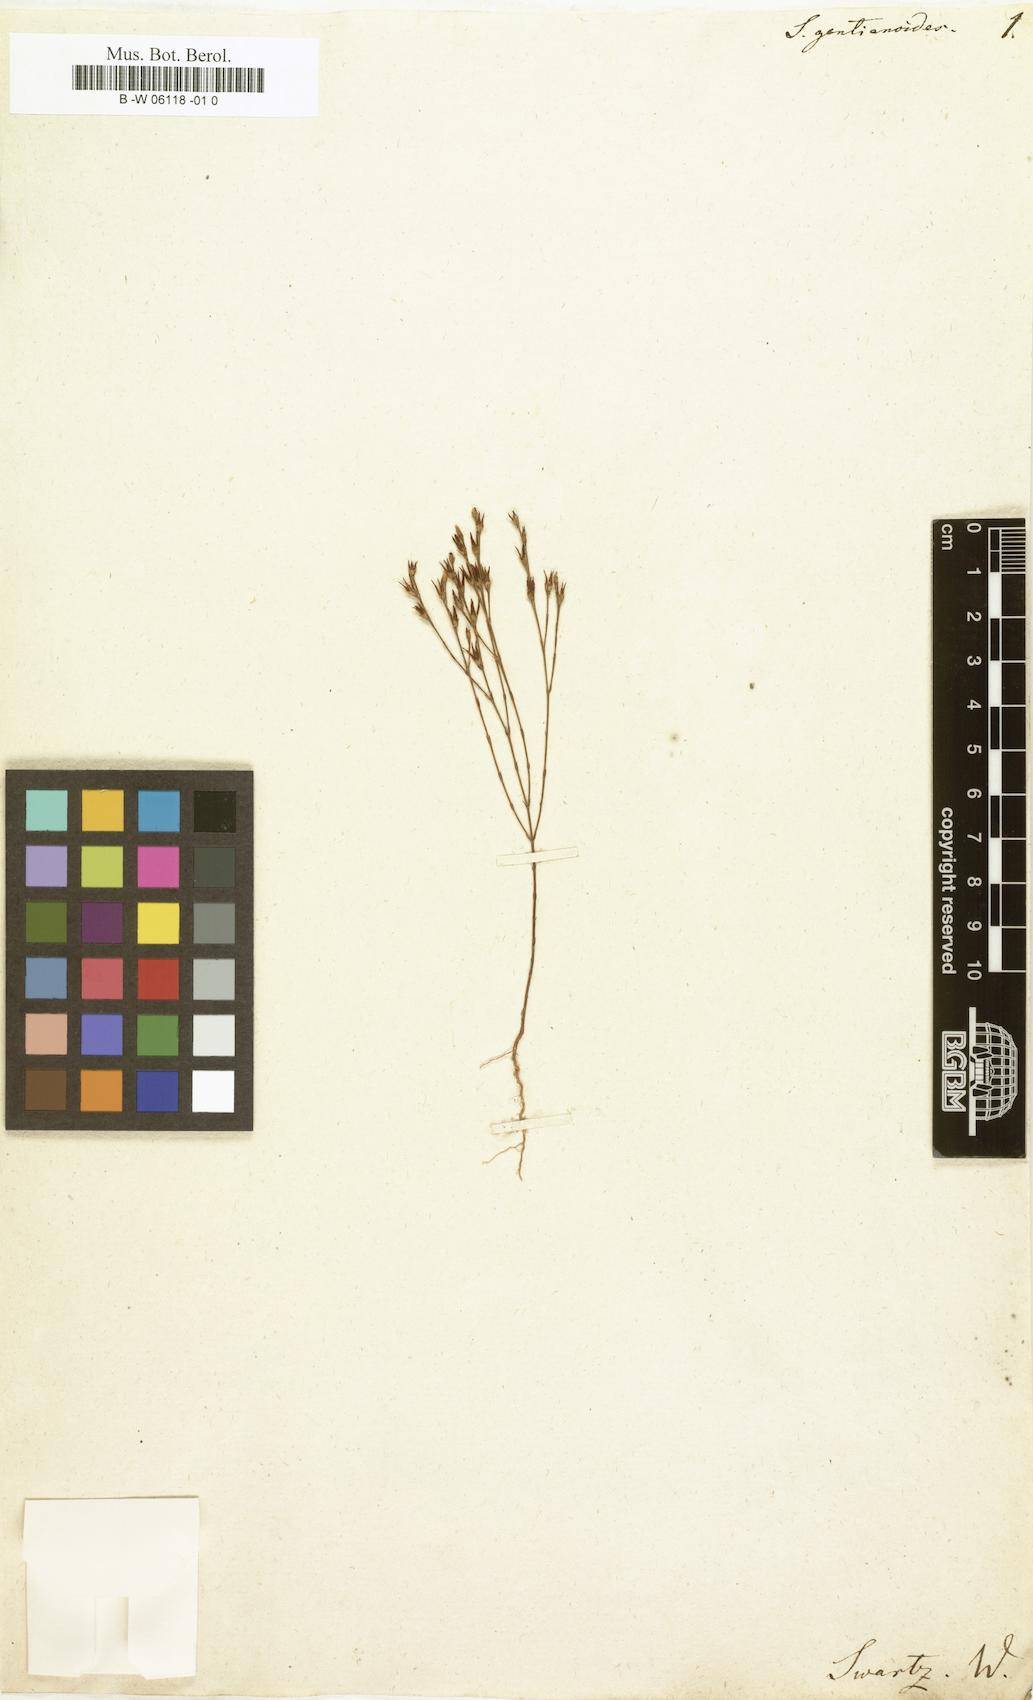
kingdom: Plantae
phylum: Tracheophyta
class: Magnoliopsida
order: Malpighiales
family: Hypericaceae
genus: Hypericum
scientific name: Hypericum gentianoides
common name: Gentian-leaved st. john's-wort
